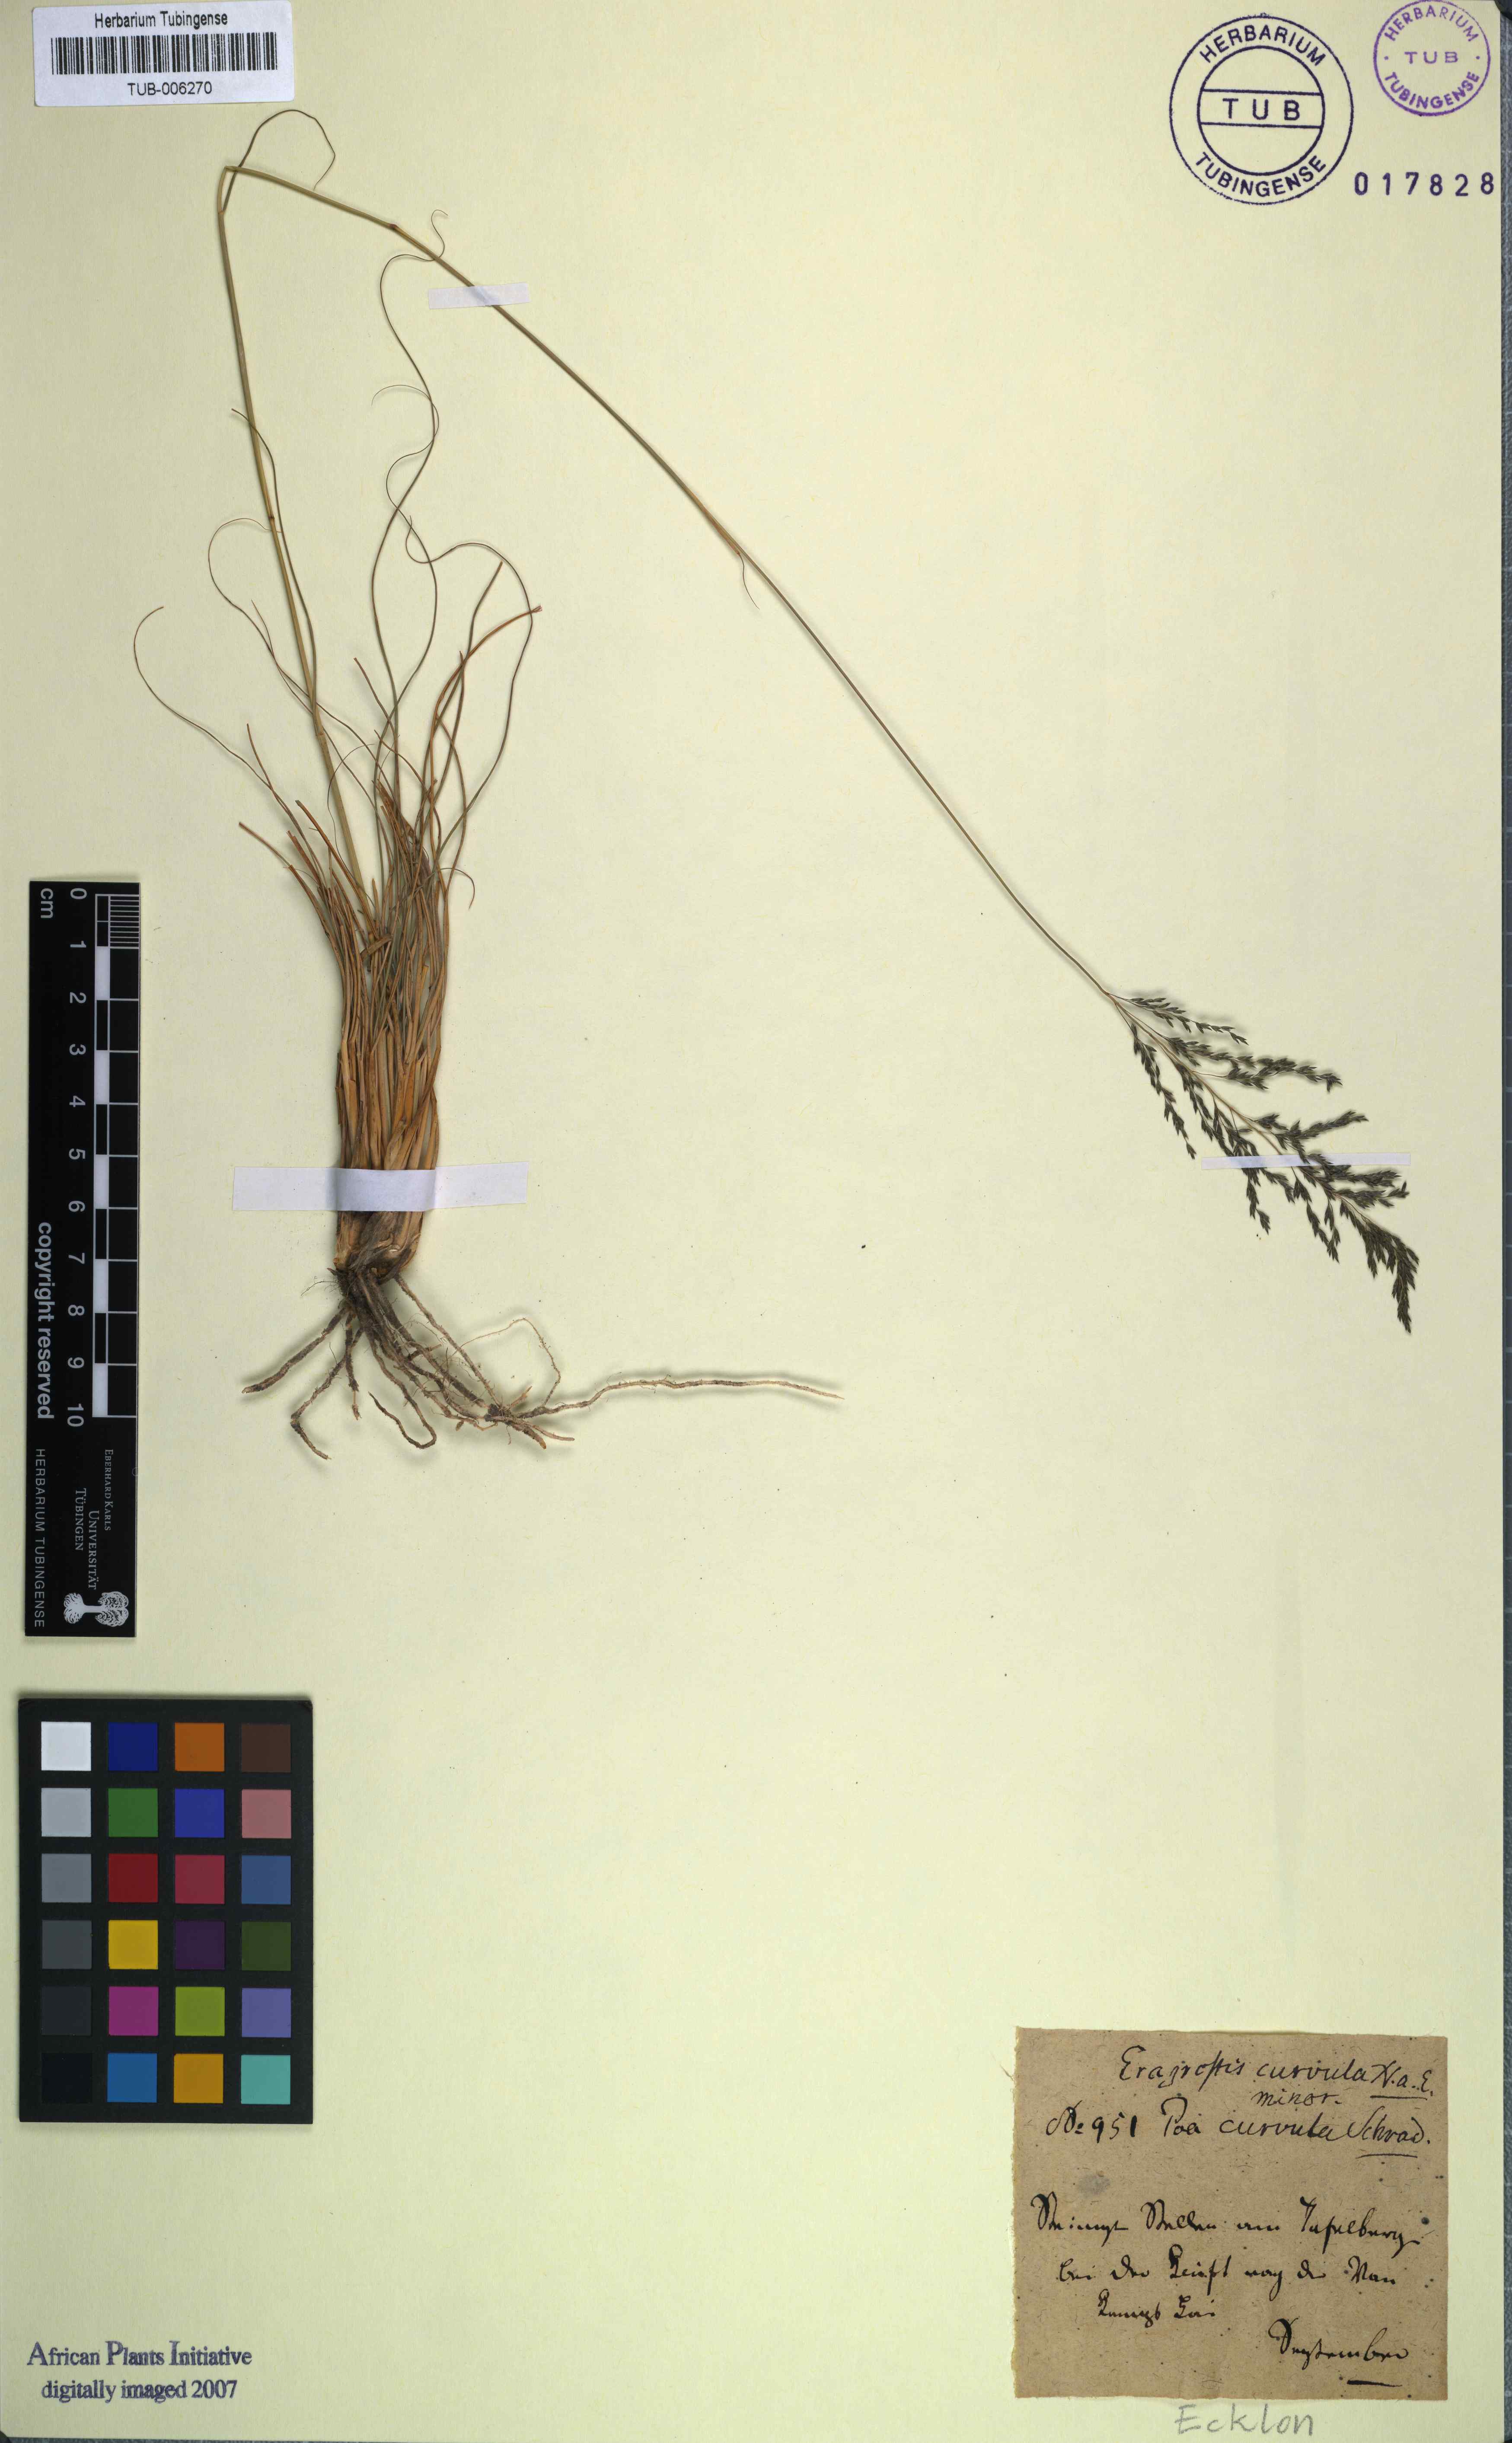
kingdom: Plantae
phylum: Tracheophyta
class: Liliopsida
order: Poales
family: Poaceae
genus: Eragrostis
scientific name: Eragrostis curvula
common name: African love-grass
